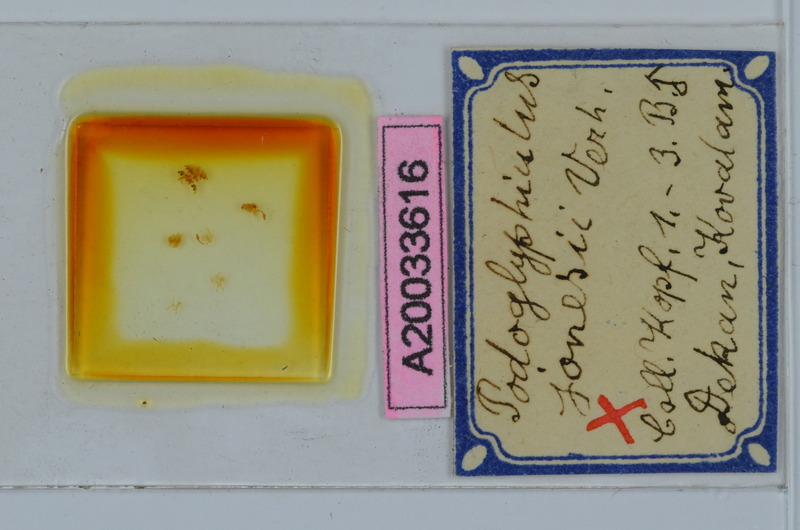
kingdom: Animalia
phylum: Arthropoda
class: Diplopoda
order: Spirostreptida
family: Cambalopsidae
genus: Podoglyphiulus
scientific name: Podoglyphiulus jonesii
